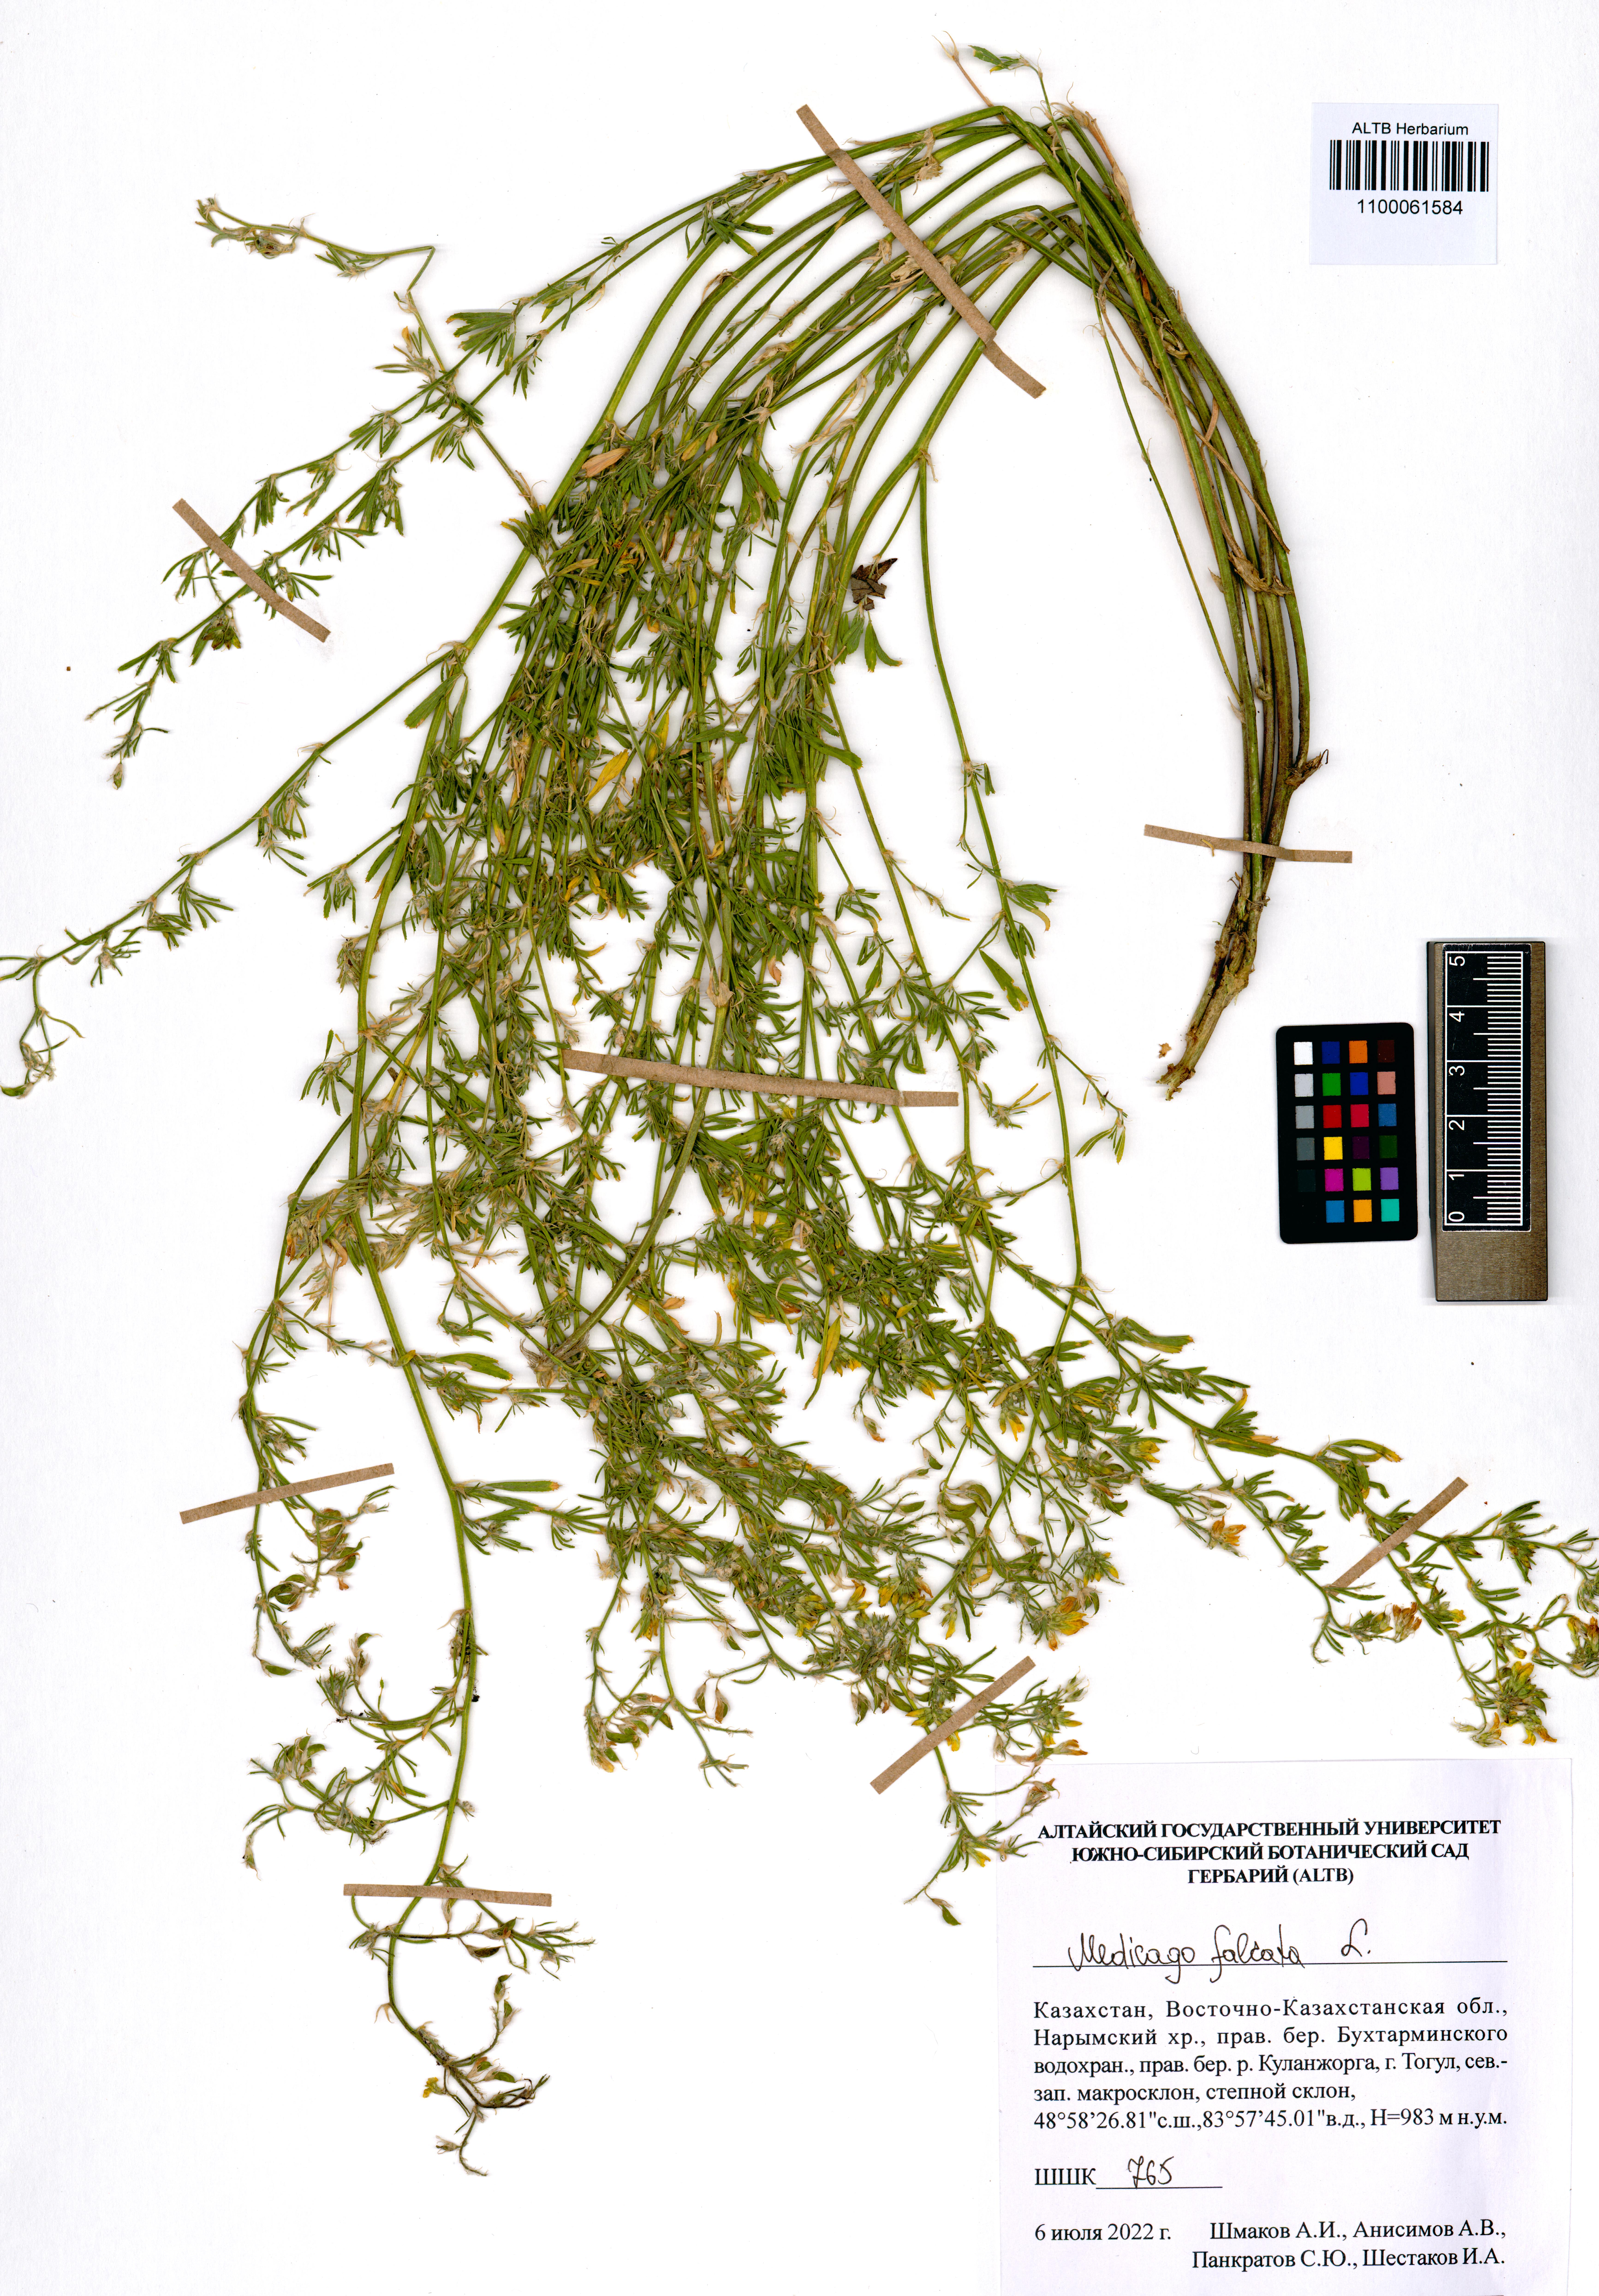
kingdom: Plantae
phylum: Tracheophyta
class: Magnoliopsida
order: Fabales
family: Fabaceae
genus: Medicago
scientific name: Medicago falcata
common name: Sickle medick
